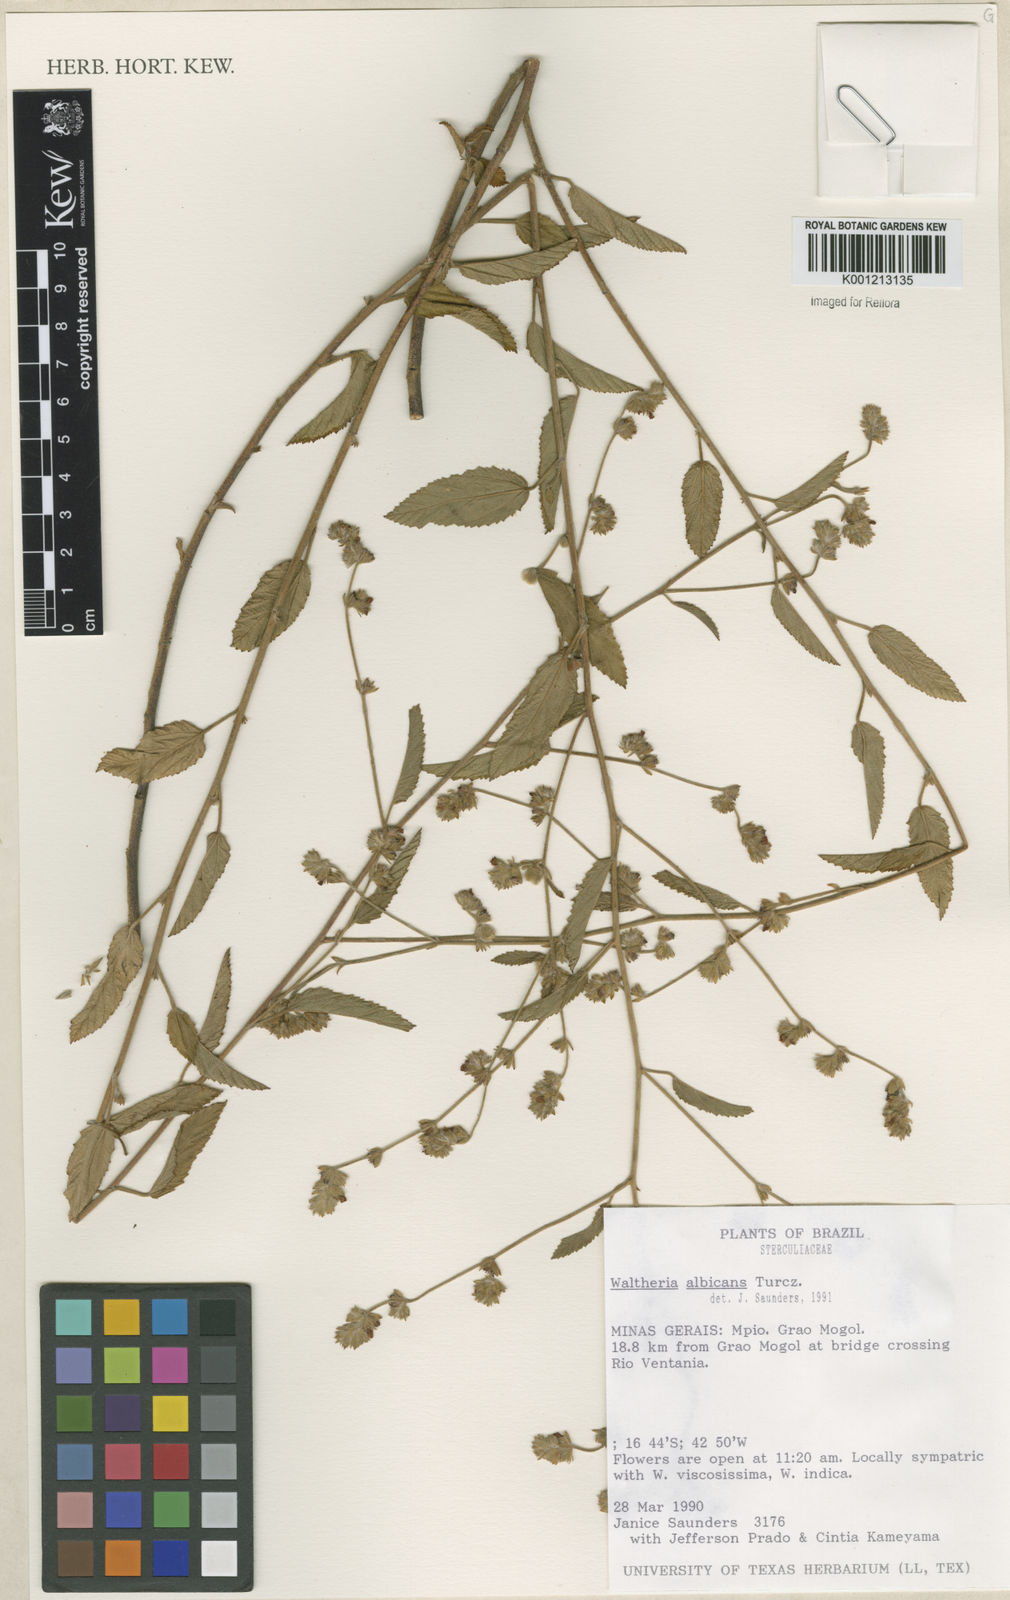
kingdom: Plantae
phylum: Tracheophyta
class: Magnoliopsida
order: Malvales
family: Malvaceae
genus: Waltheria
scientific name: Waltheria albicans
